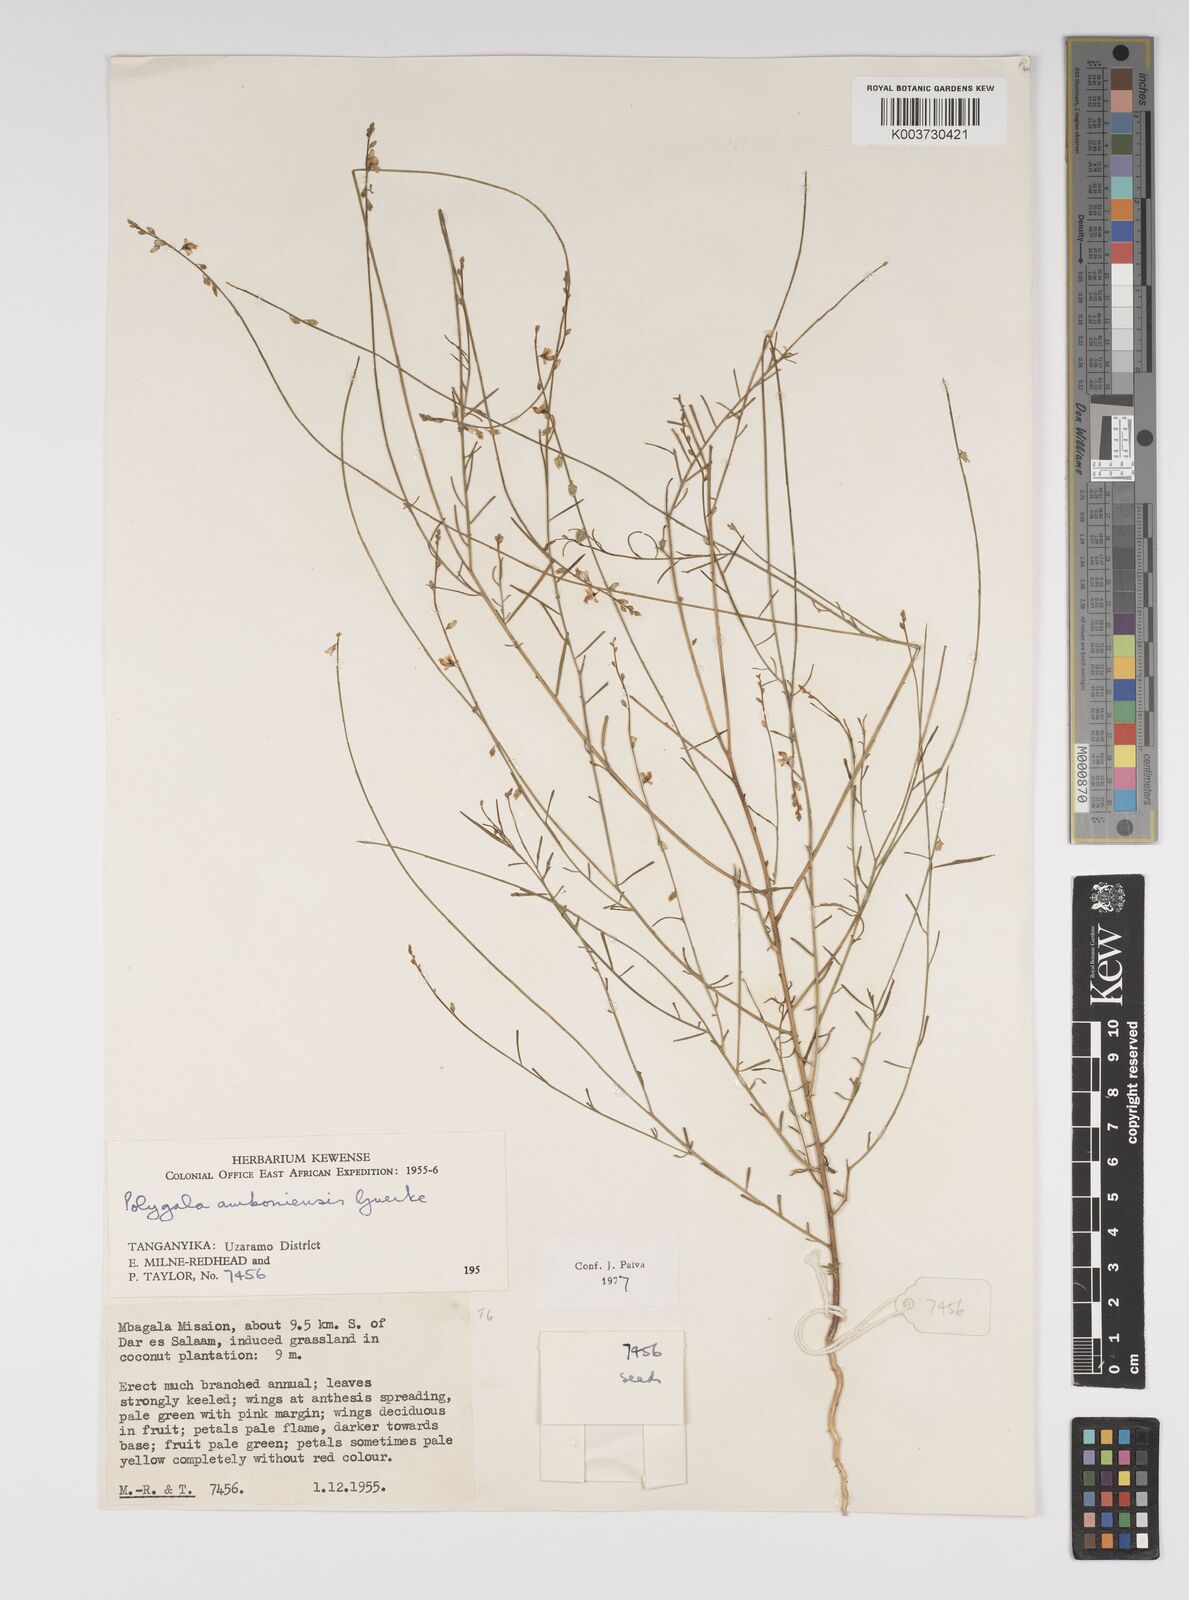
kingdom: Plantae
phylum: Tracheophyta
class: Magnoliopsida
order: Fabales
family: Polygalaceae
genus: Polygala
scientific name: Polygala amboniensis
